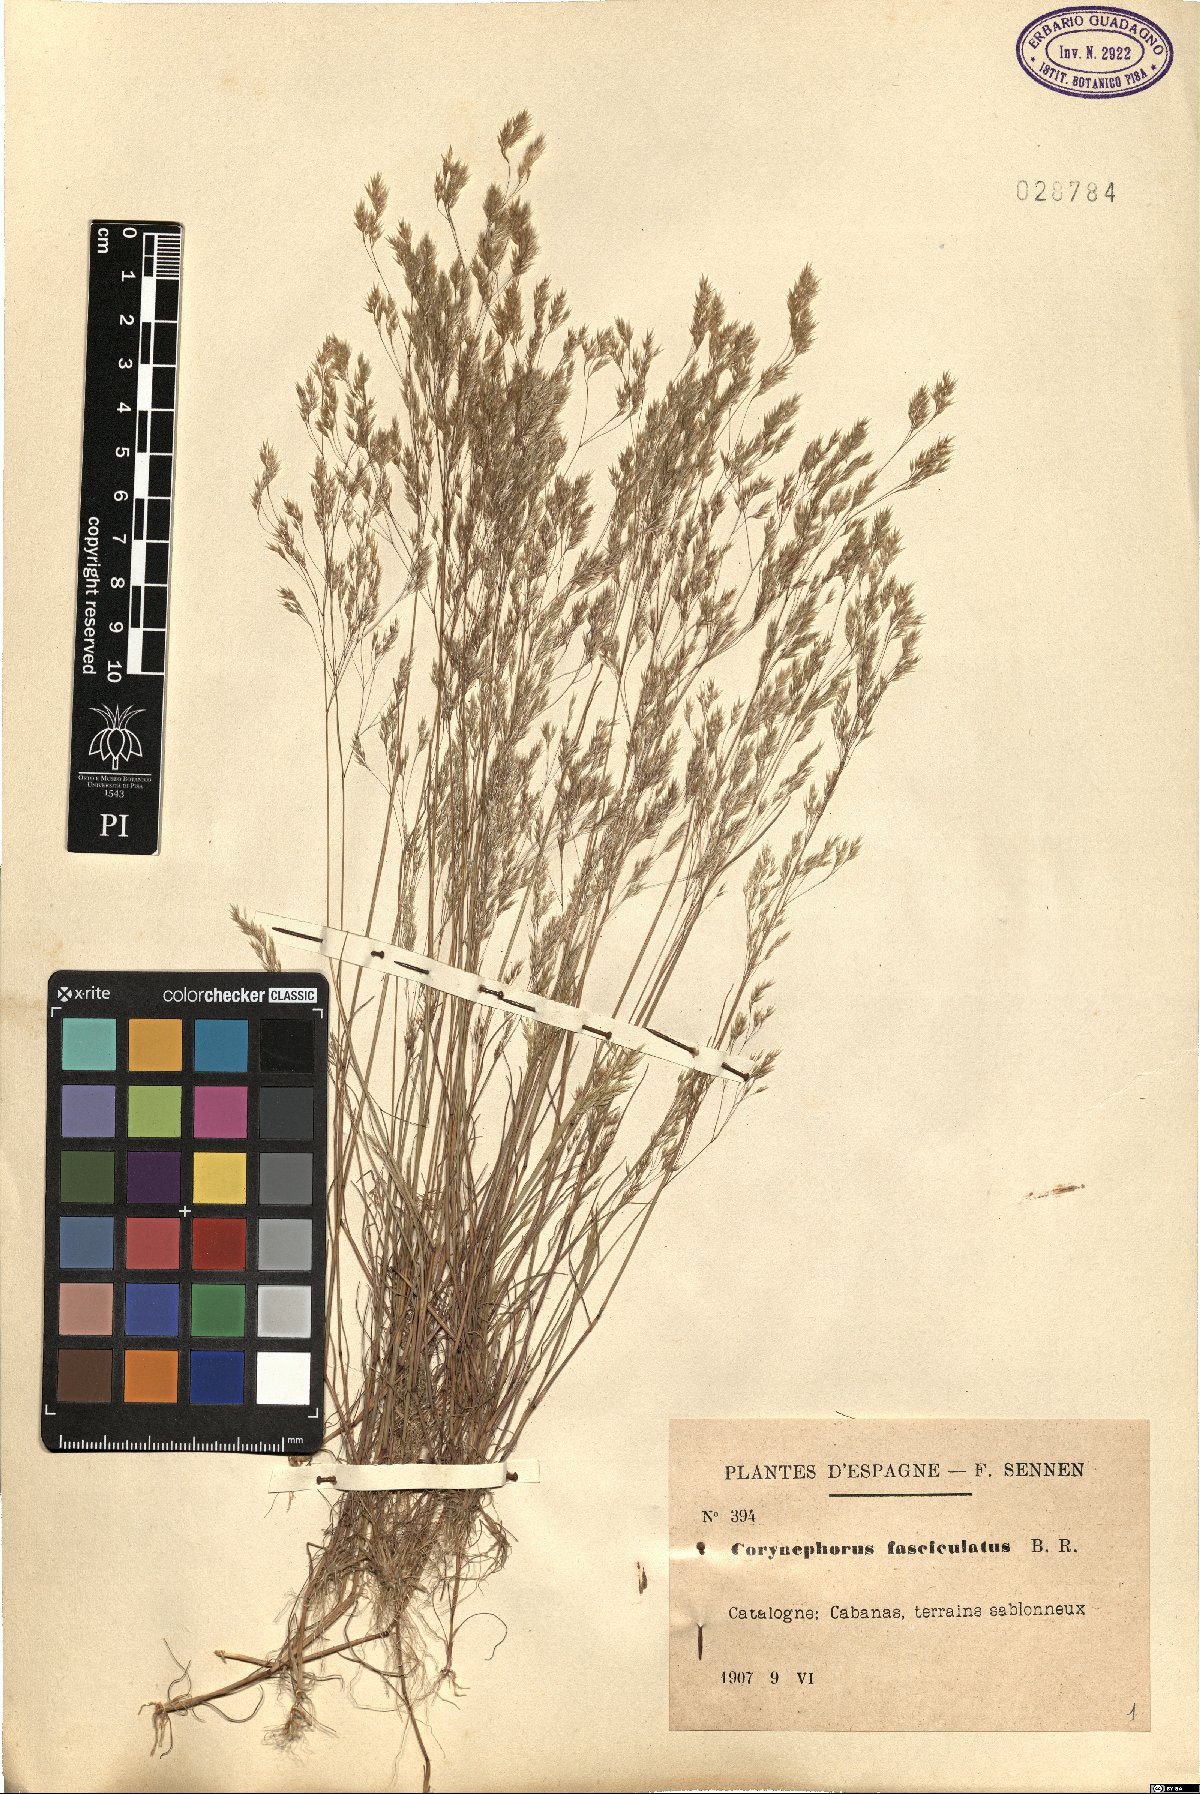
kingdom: Plantae
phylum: Tracheophyta
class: Liliopsida
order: Poales
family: Poaceae
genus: Corynephorus
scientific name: Corynephorus fasciculatus
